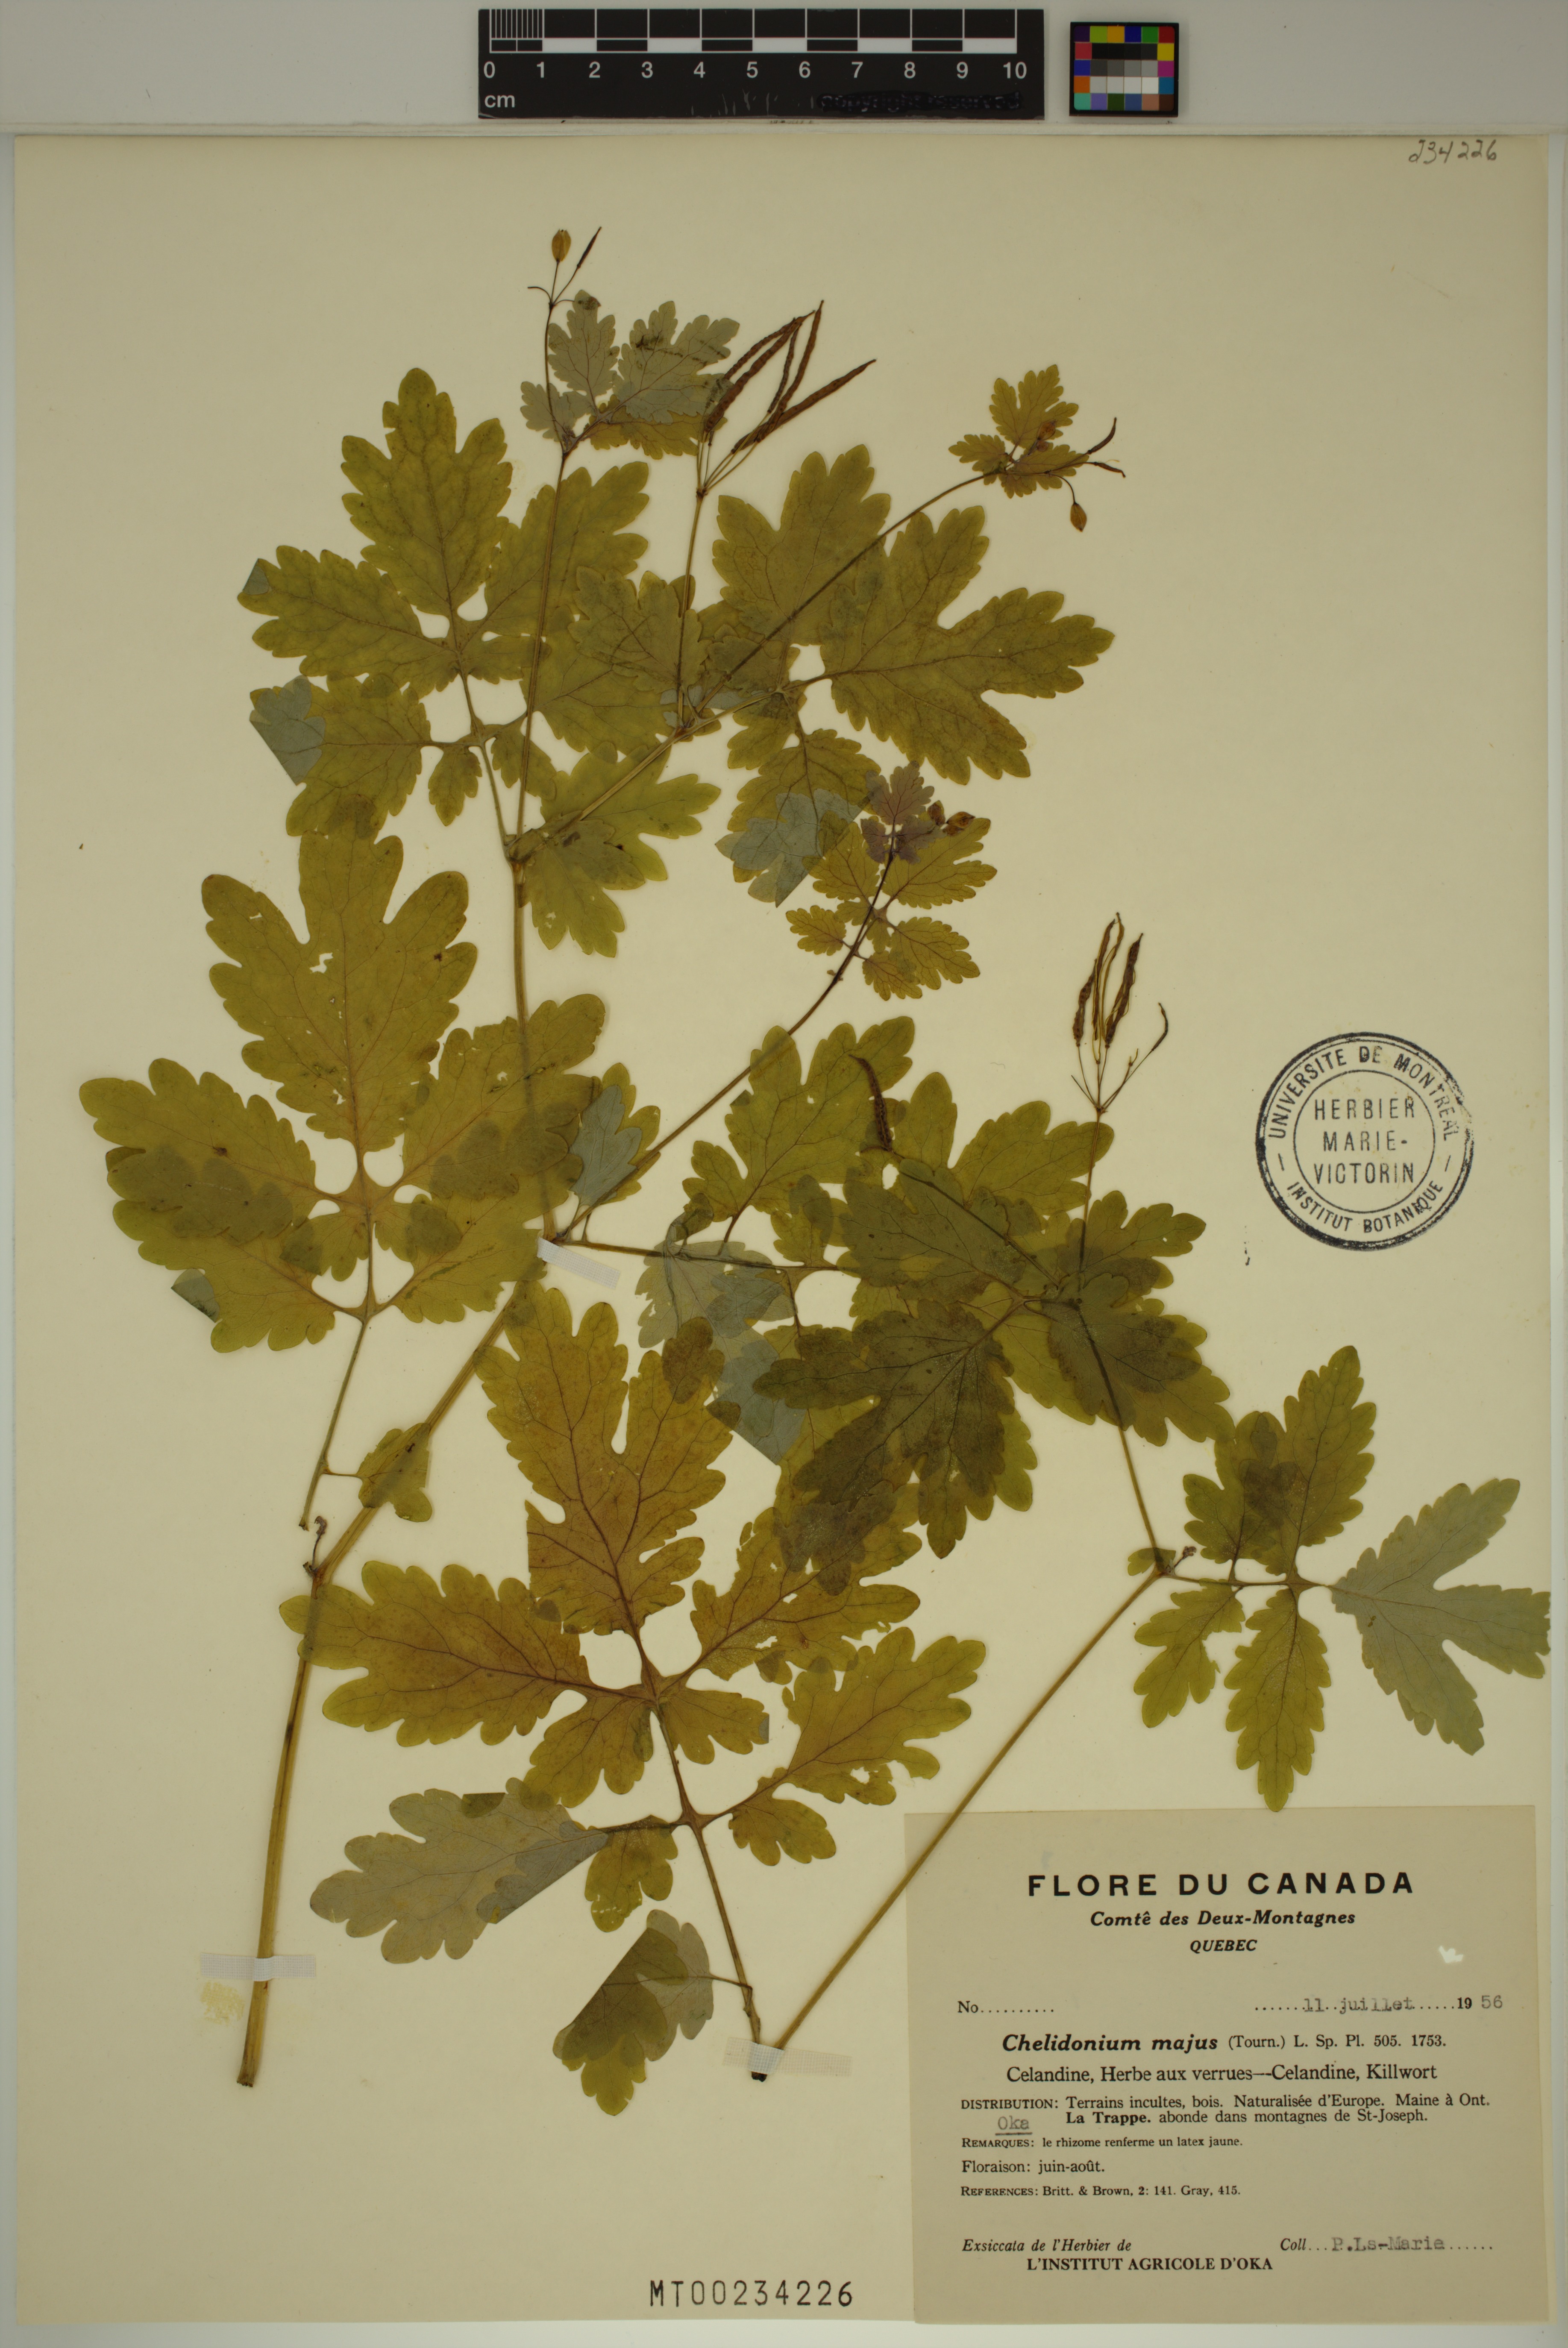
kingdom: Plantae
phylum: Tracheophyta
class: Magnoliopsida
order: Ranunculales
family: Papaveraceae
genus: Chelidonium
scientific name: Chelidonium majus
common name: Greater celandine
